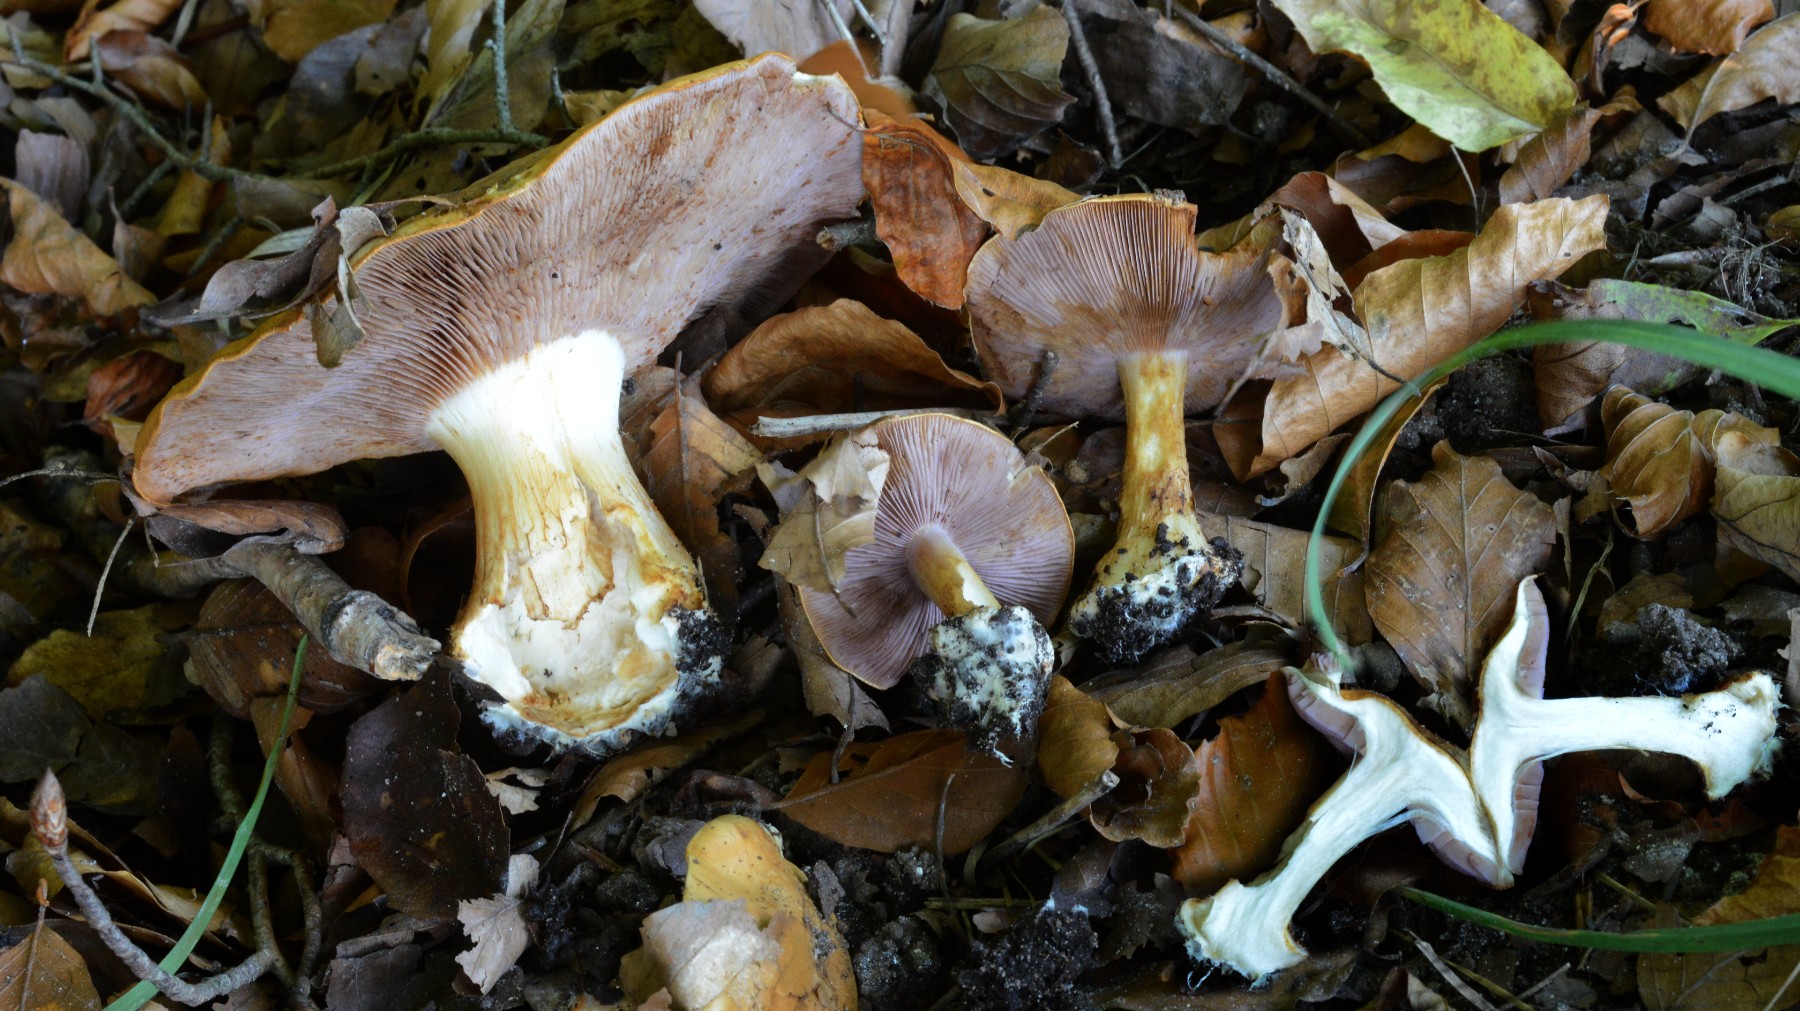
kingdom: Fungi
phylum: Basidiomycota
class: Agaricomycetes
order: Agaricales
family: Cortinariaceae
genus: Calonarius
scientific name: Calonarius platypus
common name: platfodet slørhat
